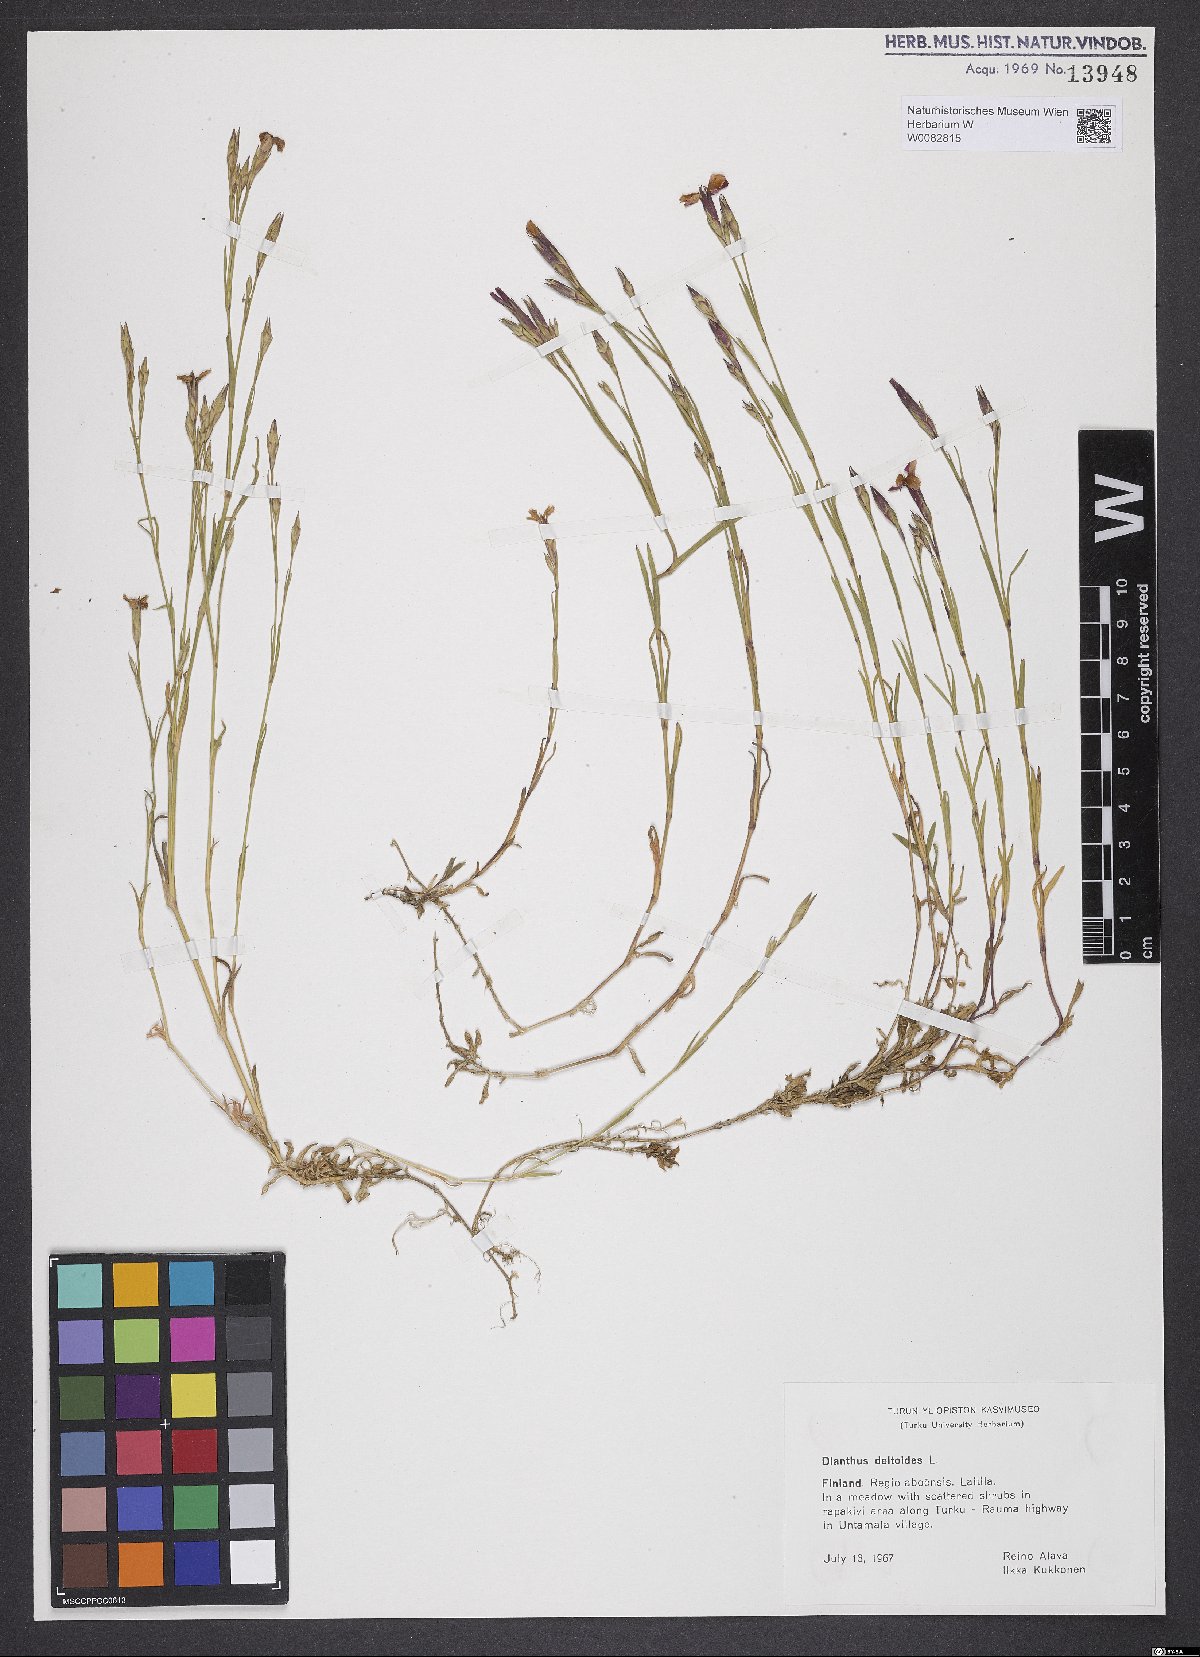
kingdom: Plantae
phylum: Tracheophyta
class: Magnoliopsida
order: Caryophyllales
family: Caryophyllaceae
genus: Dianthus
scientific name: Dianthus deltoides
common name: Maiden pink
